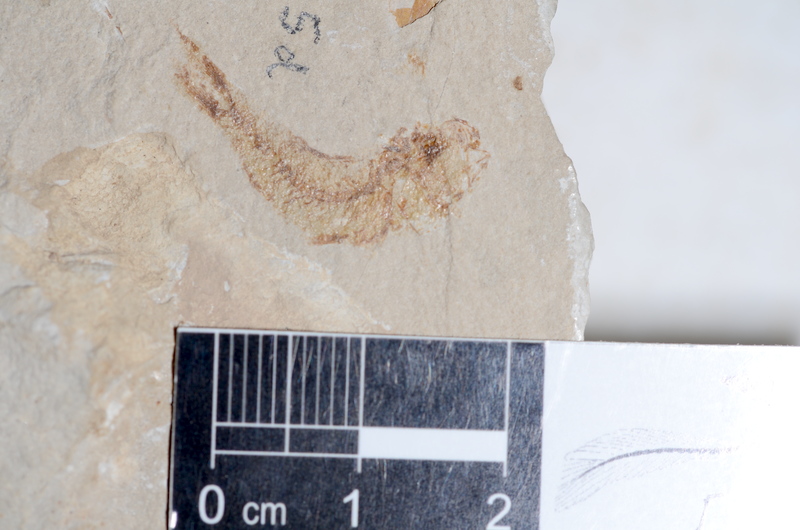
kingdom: Animalia
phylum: Chordata
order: Clupeiformes
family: Clupeidae
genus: Clupea
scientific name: Clupea harengus
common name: Herring
